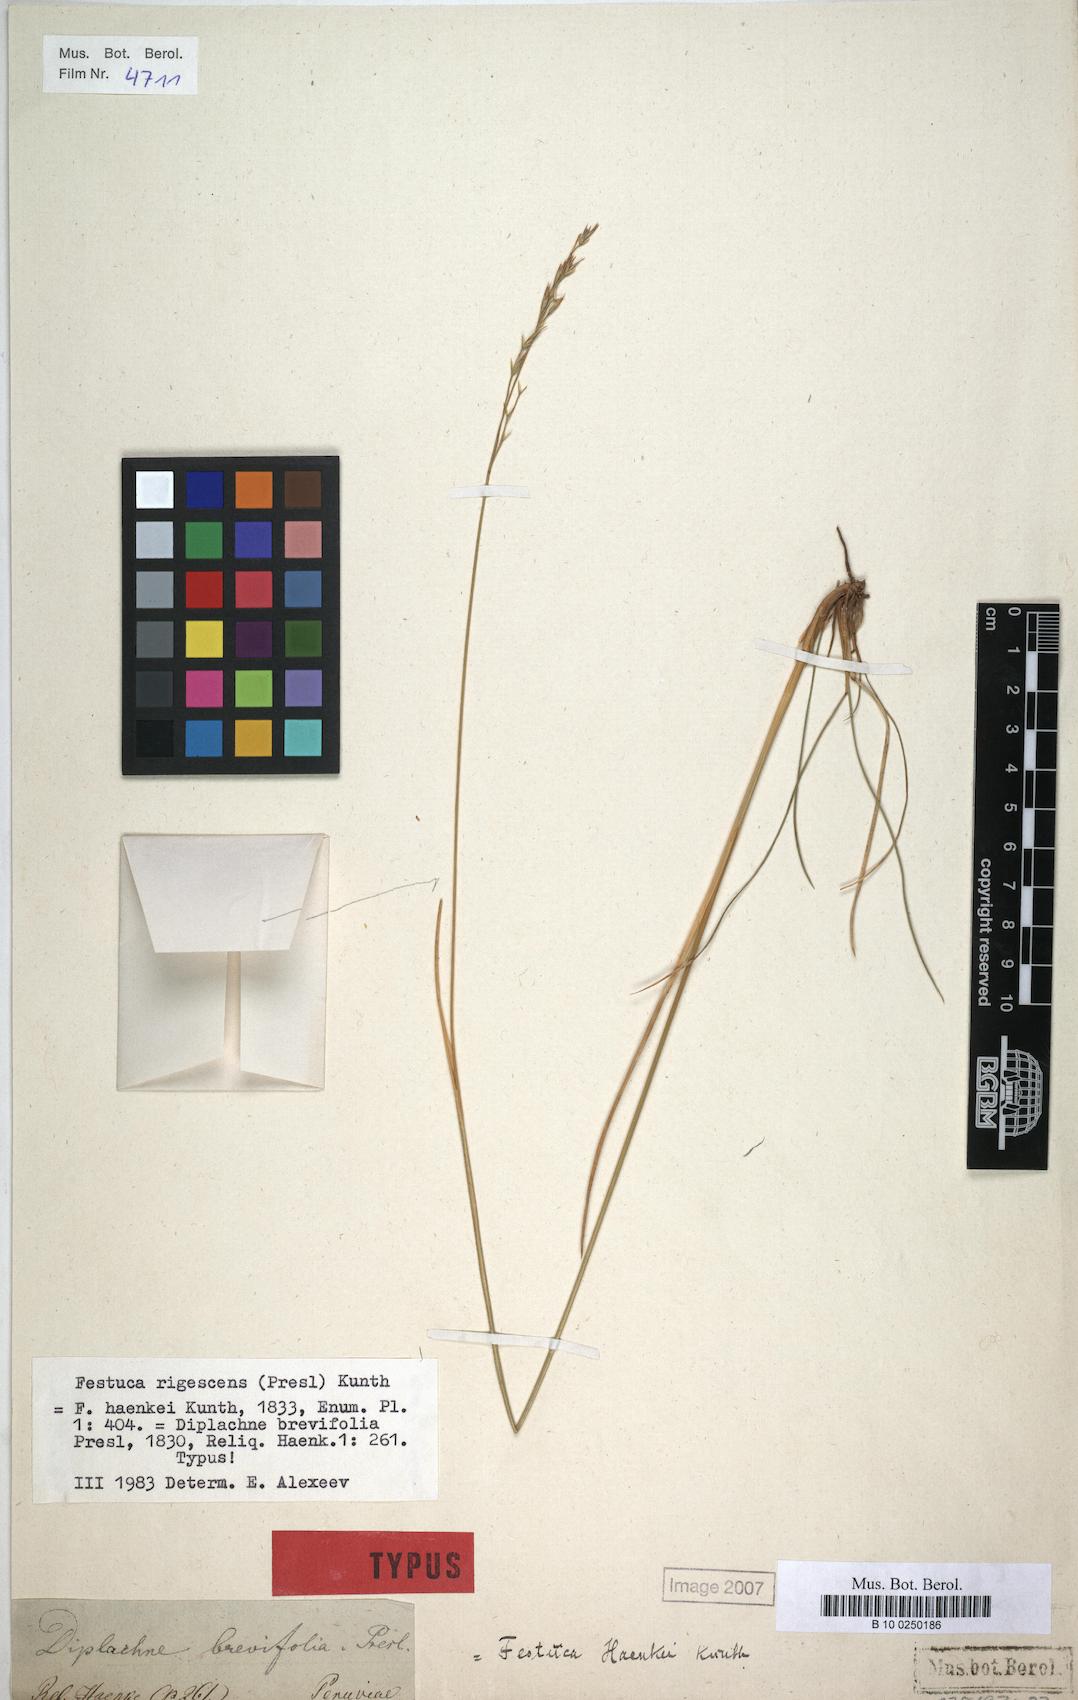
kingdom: Plantae
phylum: Tracheophyta
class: Liliopsida
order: Poales
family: Poaceae
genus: Festuca
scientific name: Festuca rigescens
